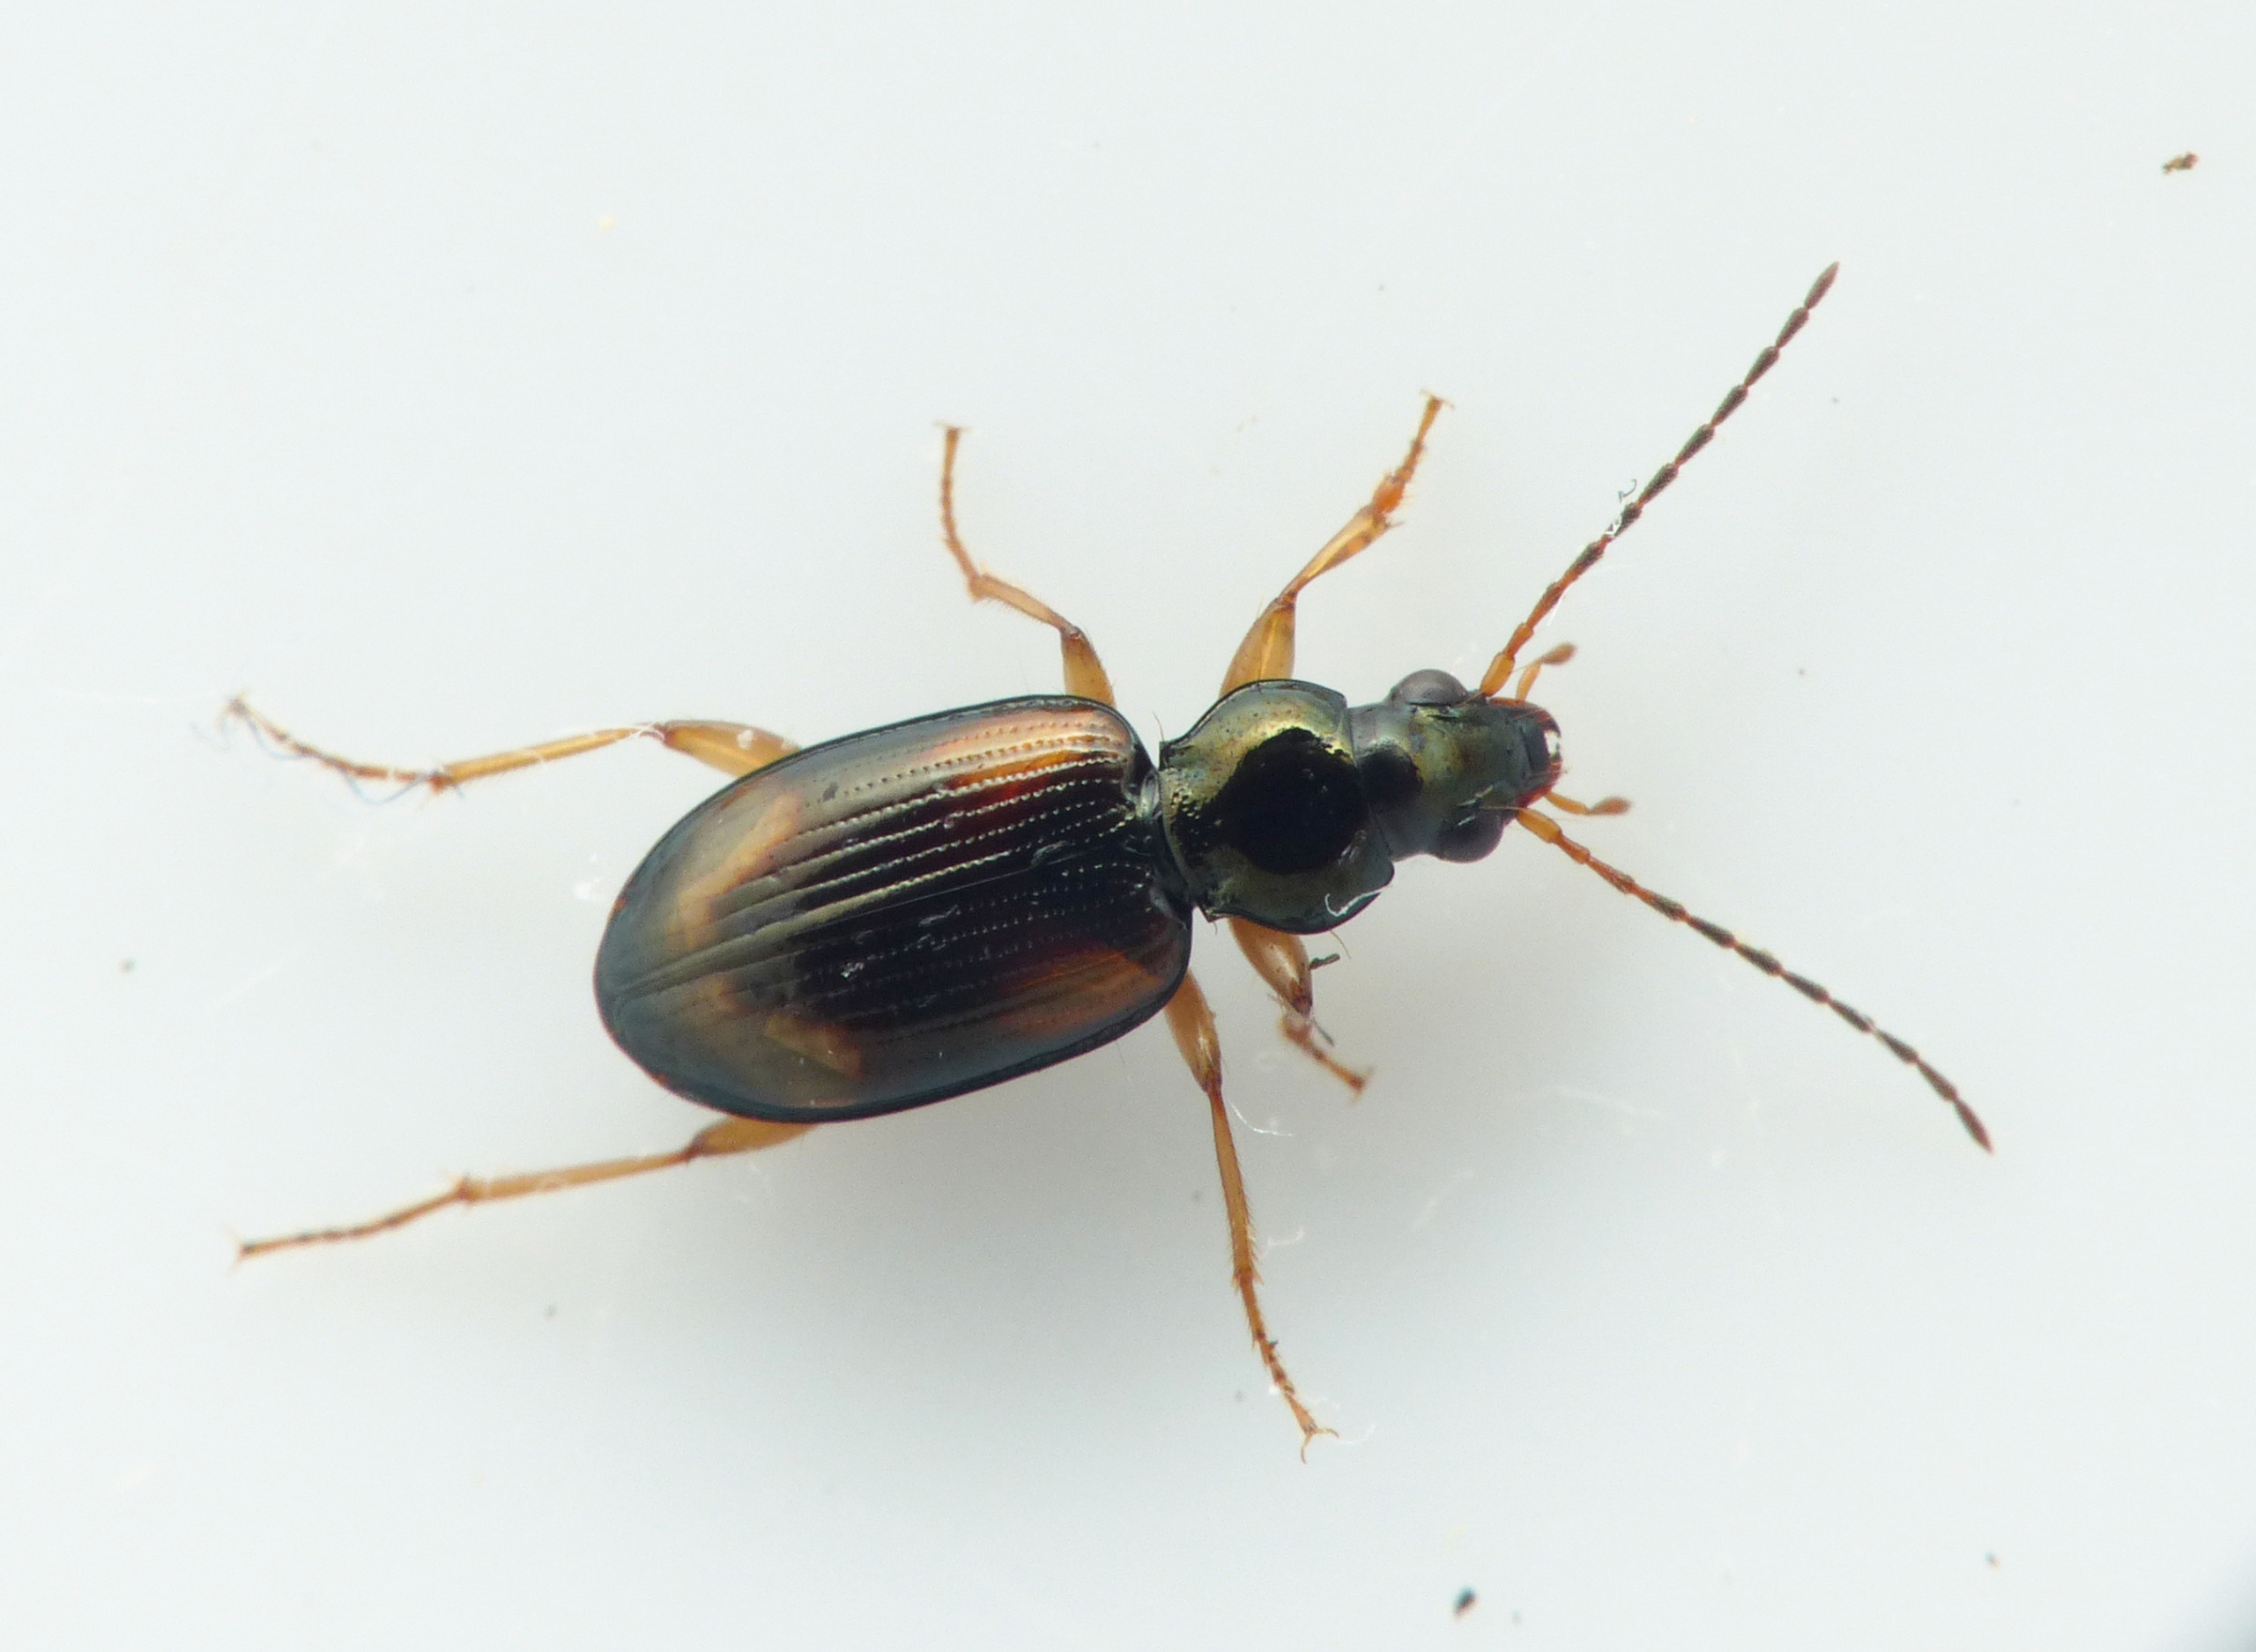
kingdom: Animalia
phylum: Arthropoda
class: Insecta
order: Coleoptera
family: Carabidae
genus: Bembidion
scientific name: Bembidion tetracolum
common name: Stor glansløber
